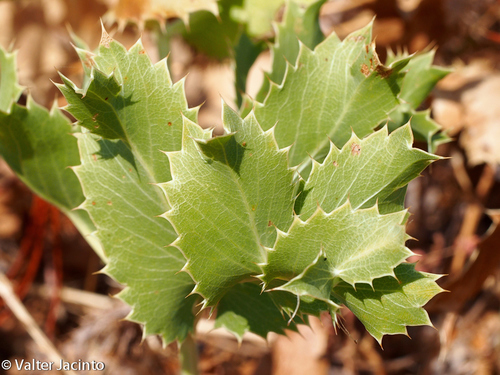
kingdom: Plantae
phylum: Tracheophyta
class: Magnoliopsida
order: Apiales
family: Apiaceae
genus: Eryngium
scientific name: Eryngium campestre
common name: Field eryngo
